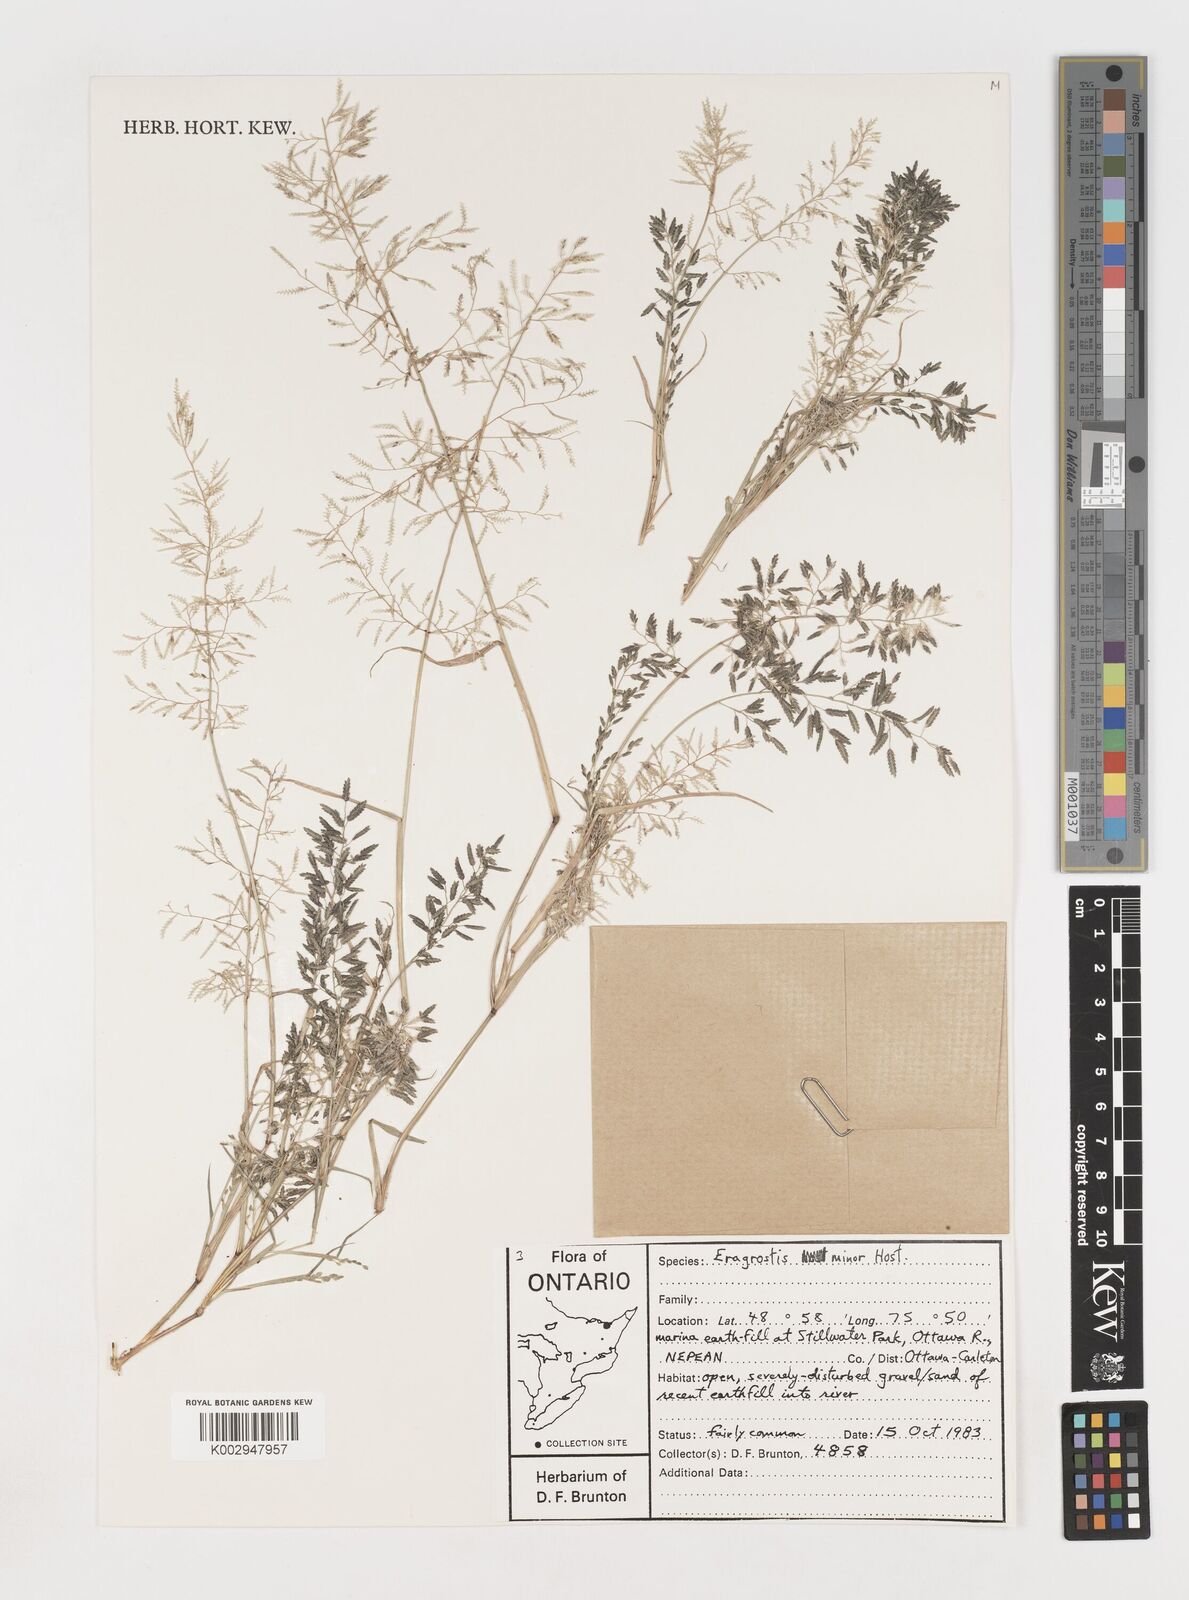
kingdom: Plantae
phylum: Tracheophyta
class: Liliopsida
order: Poales
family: Poaceae
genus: Eragrostis
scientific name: Eragrostis minor
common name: Small love-grass
